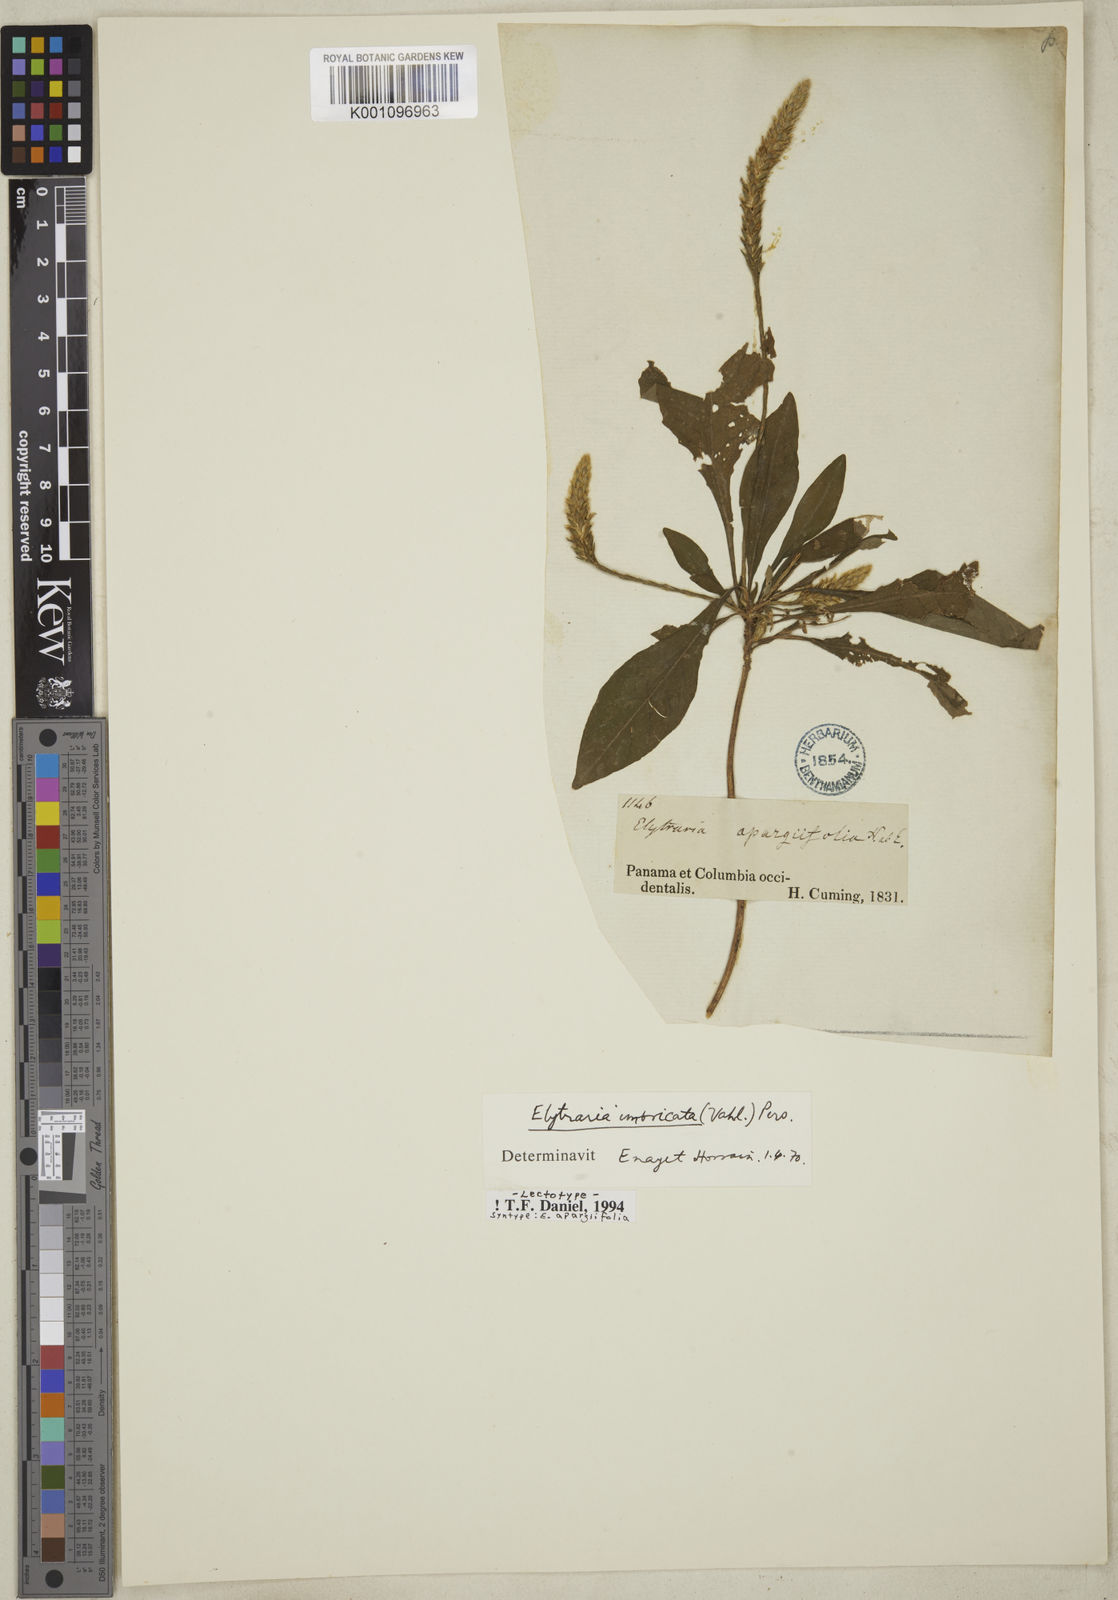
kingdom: Plantae
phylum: Tracheophyta
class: Magnoliopsida
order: Lamiales
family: Acanthaceae
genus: Elytraria
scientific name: Elytraria imbricata
